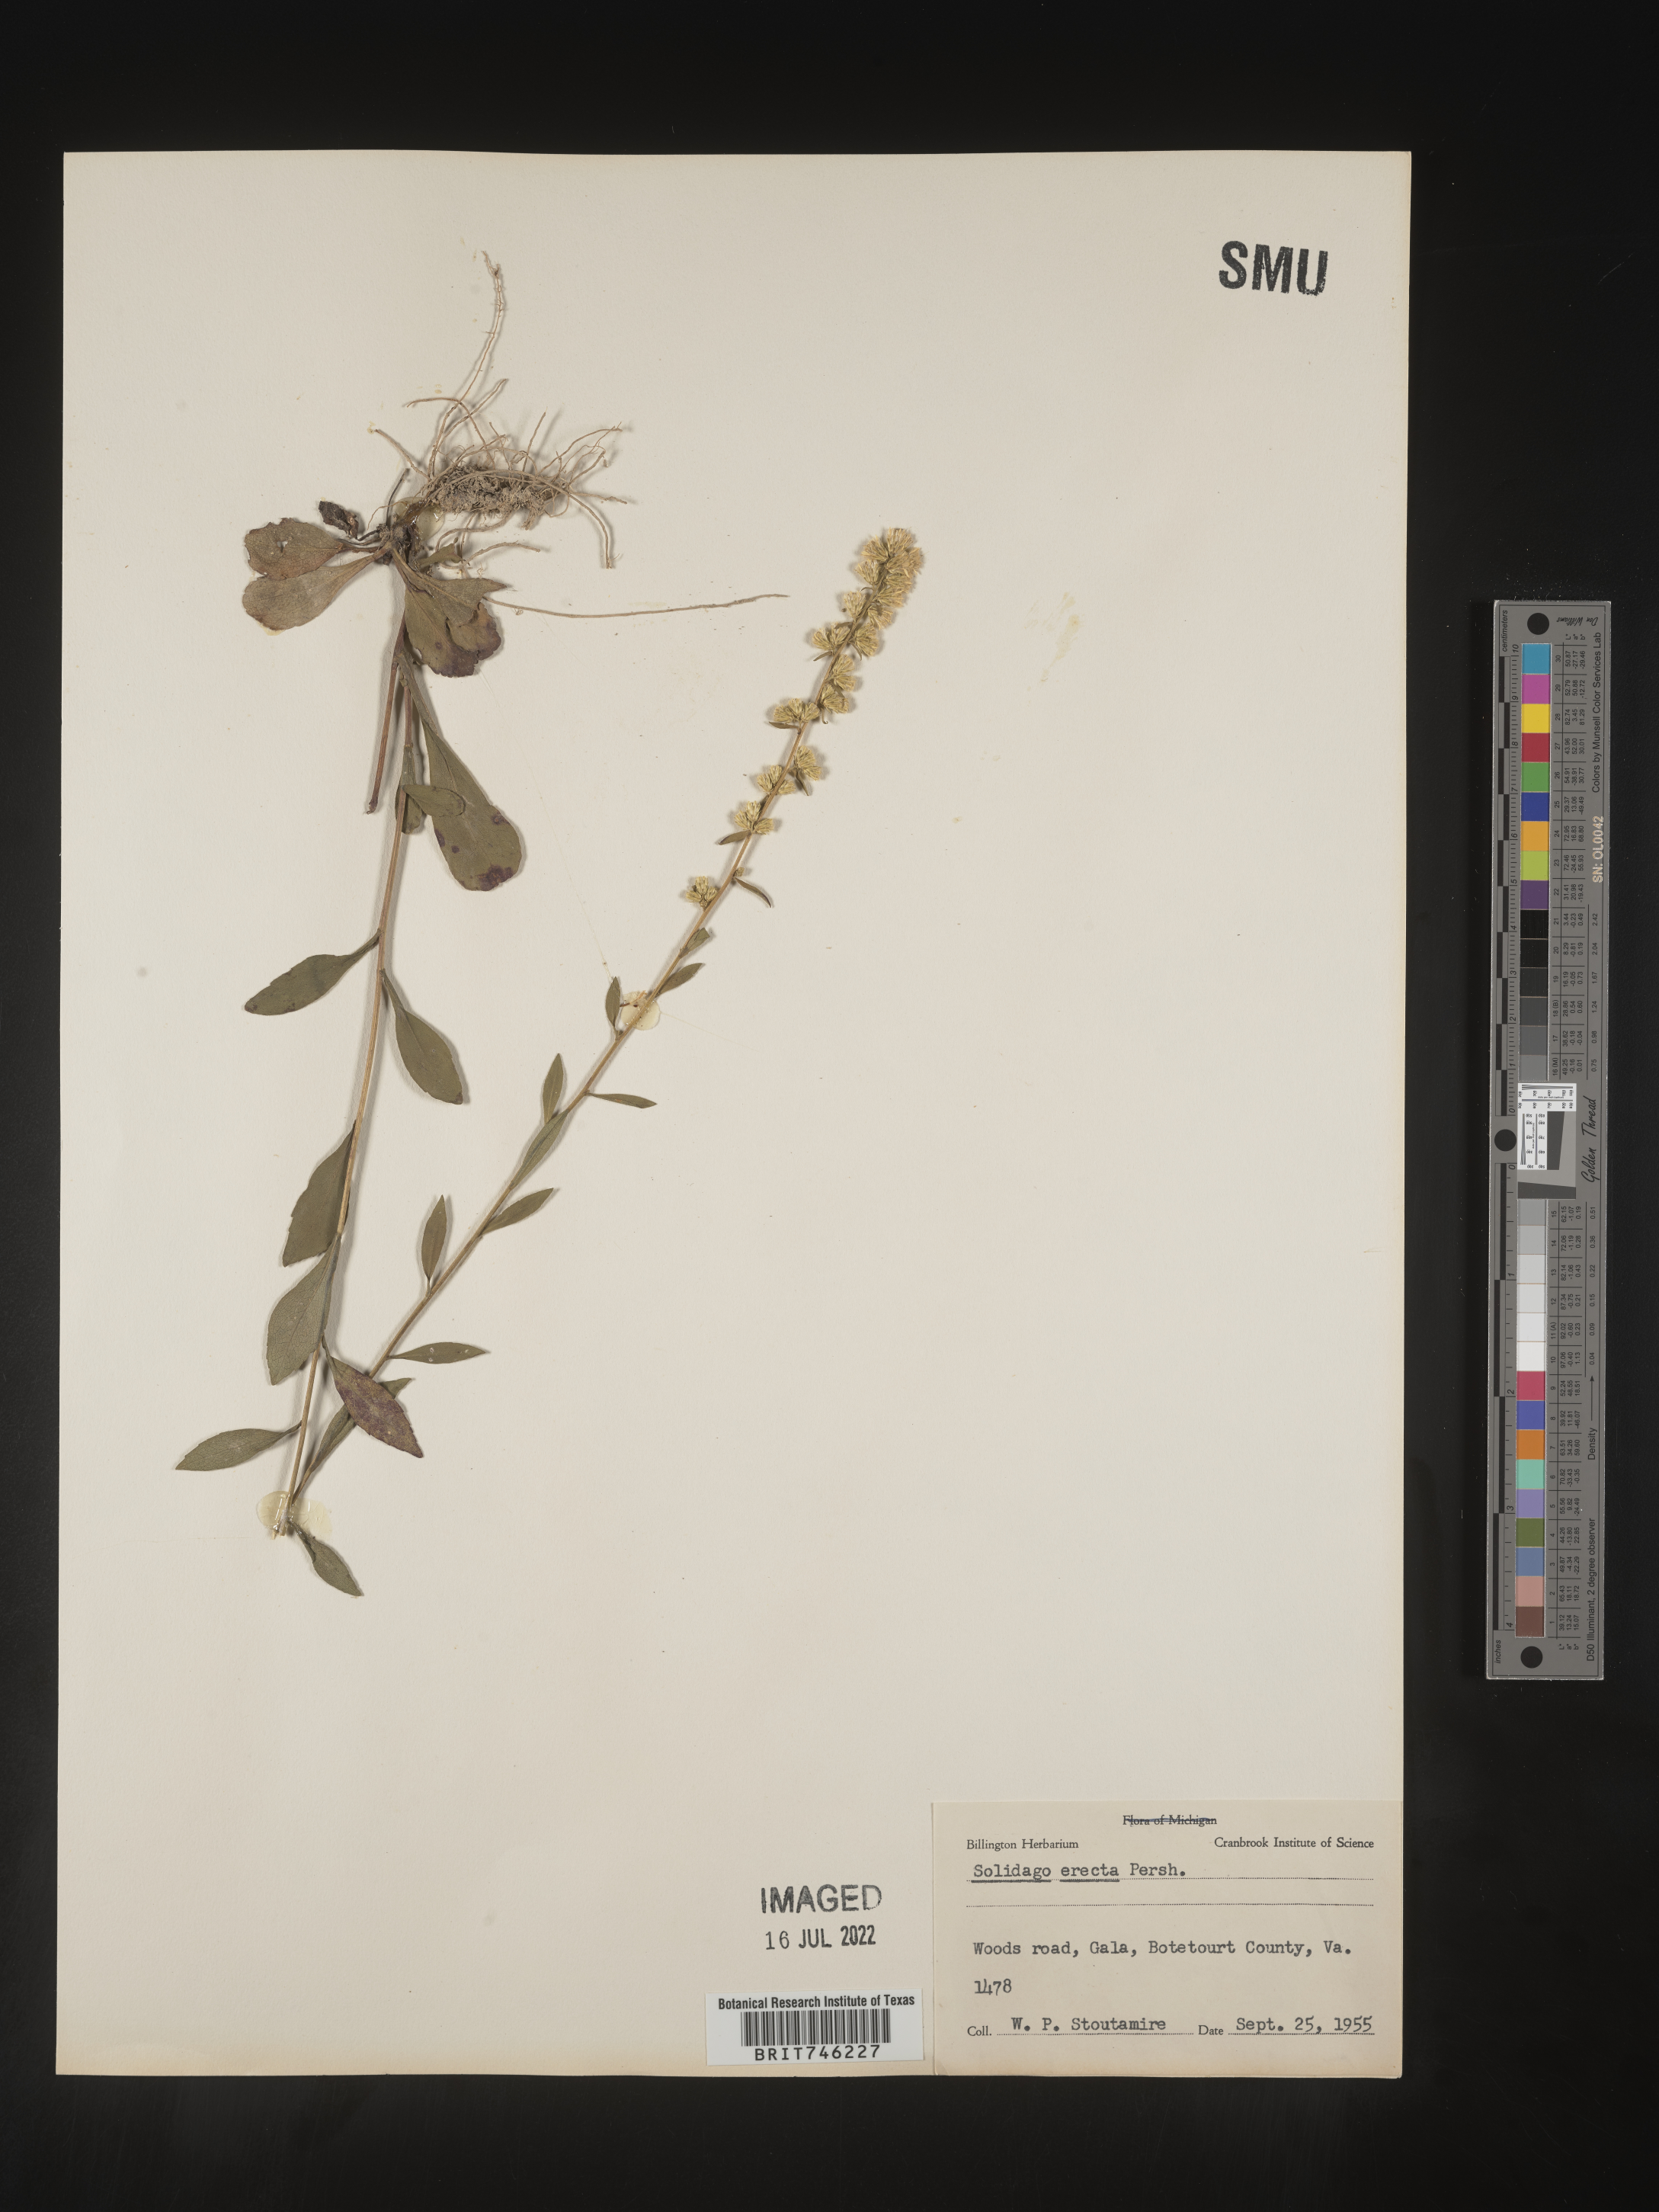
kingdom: Plantae
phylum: Tracheophyta
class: Magnoliopsida
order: Asterales
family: Asteraceae
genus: Solidago
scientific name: Solidago erecta
